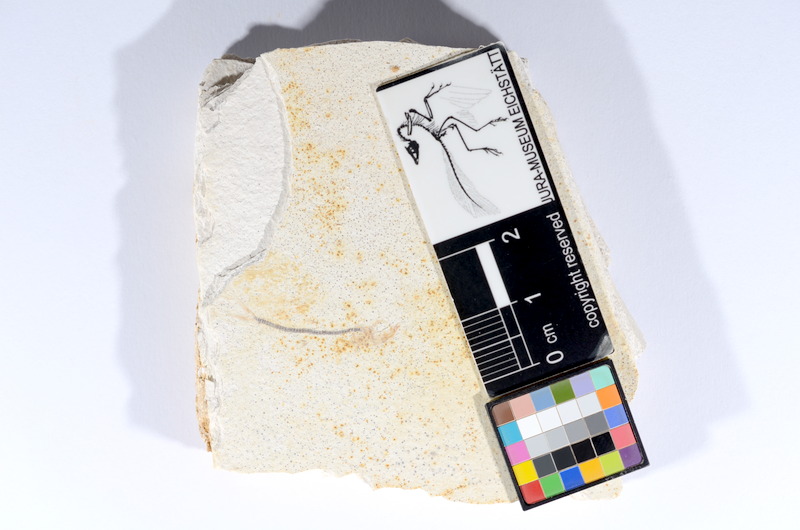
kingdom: Animalia
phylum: Chordata
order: Salmoniformes
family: Orthogonikleithridae
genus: Orthogonikleithrus
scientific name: Orthogonikleithrus hoelli
